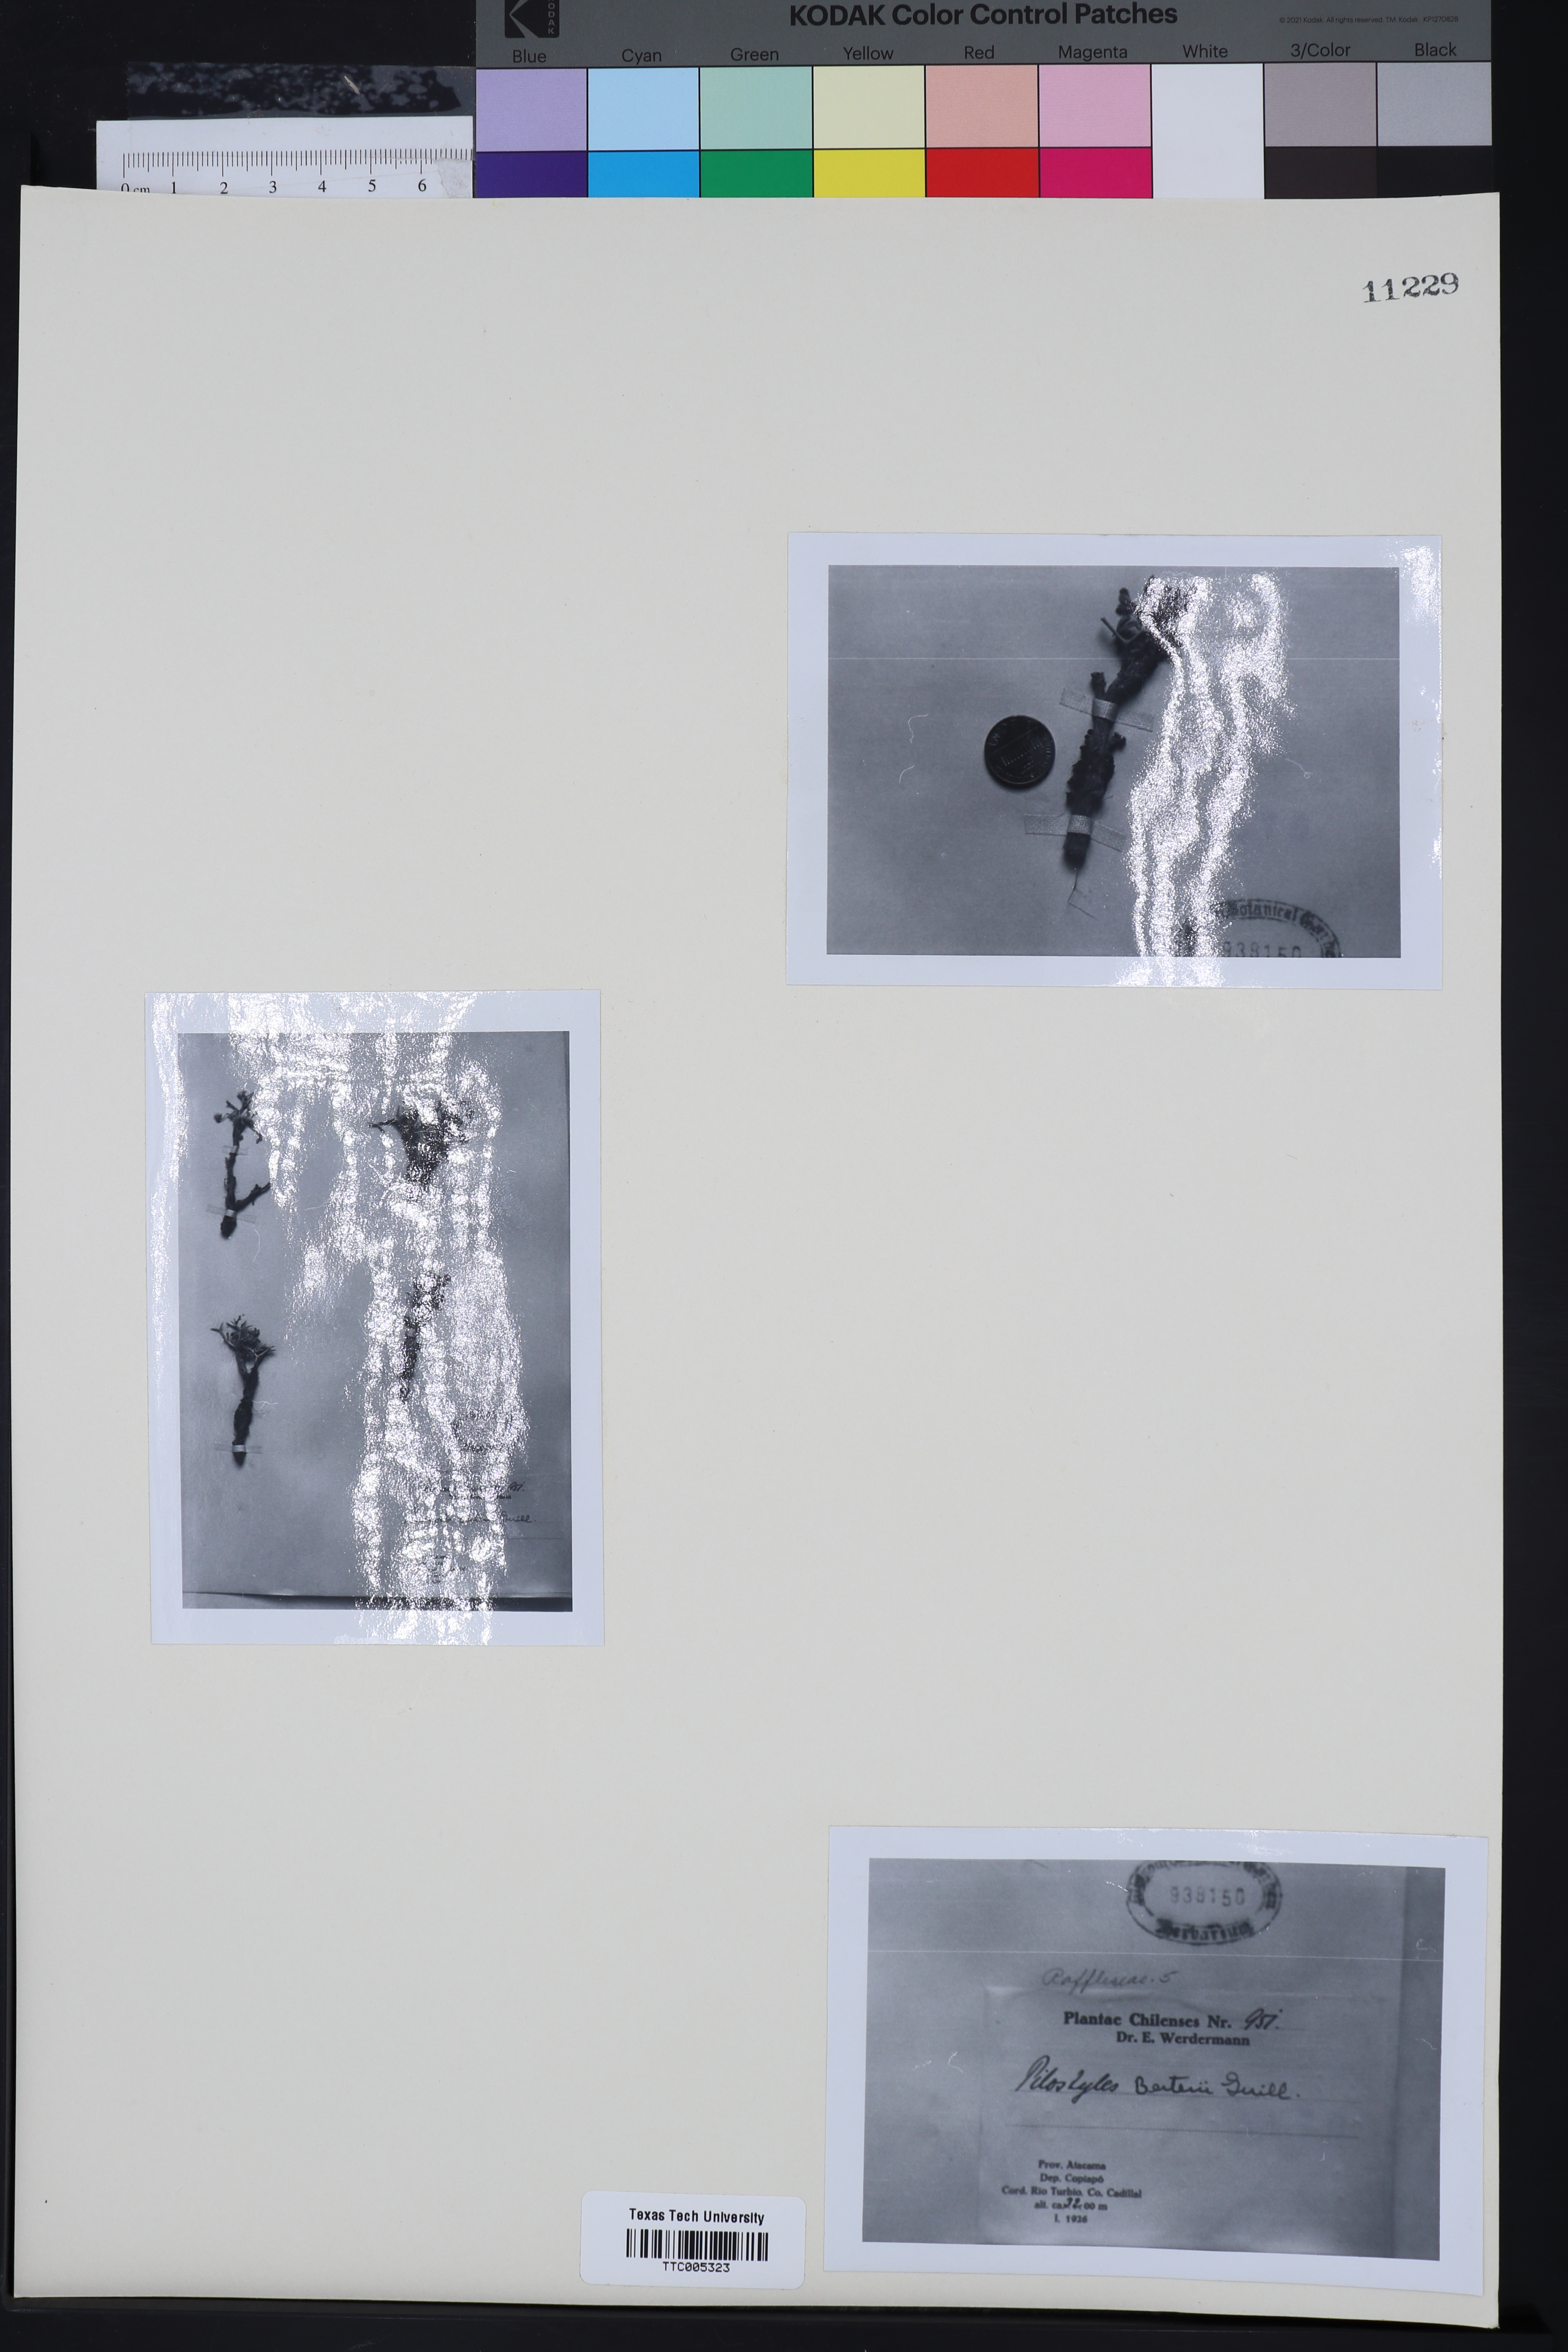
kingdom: Plantae
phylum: Tracheophyta
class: Magnoliopsida
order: Cucurbitales
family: Apodanthaceae
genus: Pilostyles
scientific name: Pilostyles berteroi
